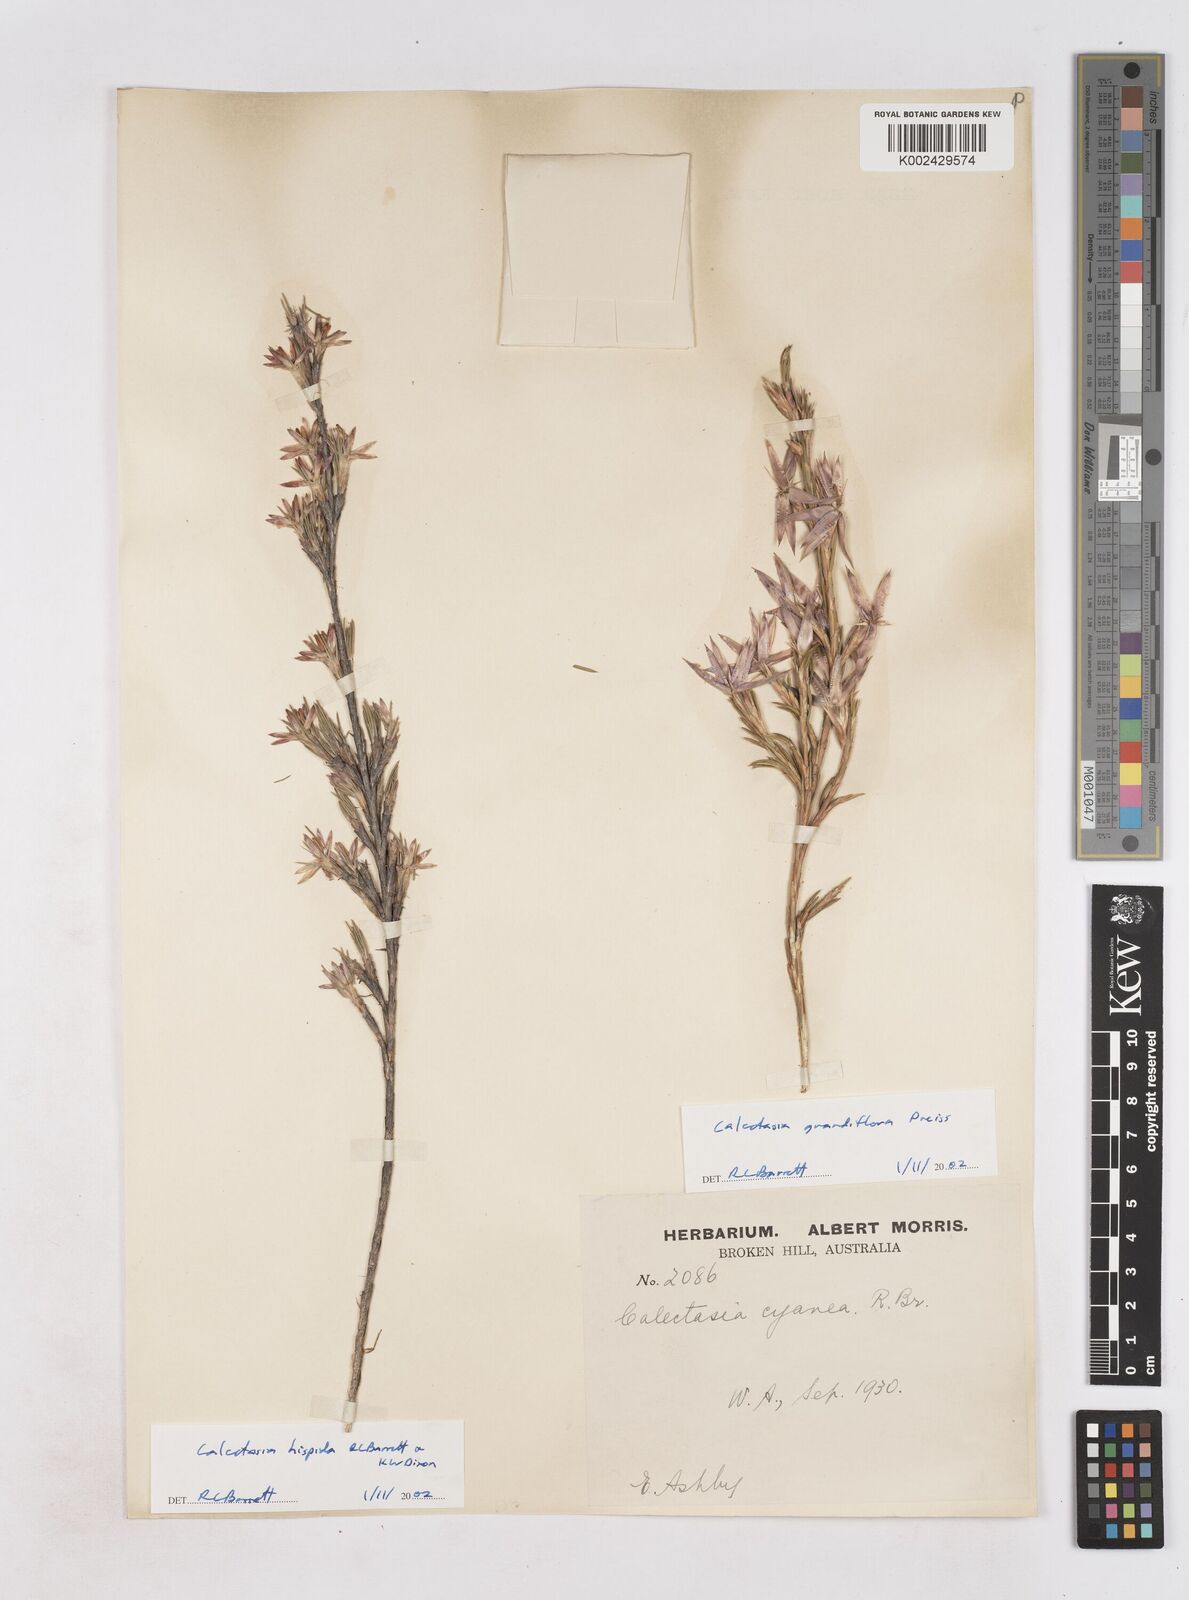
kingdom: Plantae
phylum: Tracheophyta
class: Liliopsida
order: Arecales
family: Dasypogonaceae
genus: Calectasia
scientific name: Calectasia hispida
